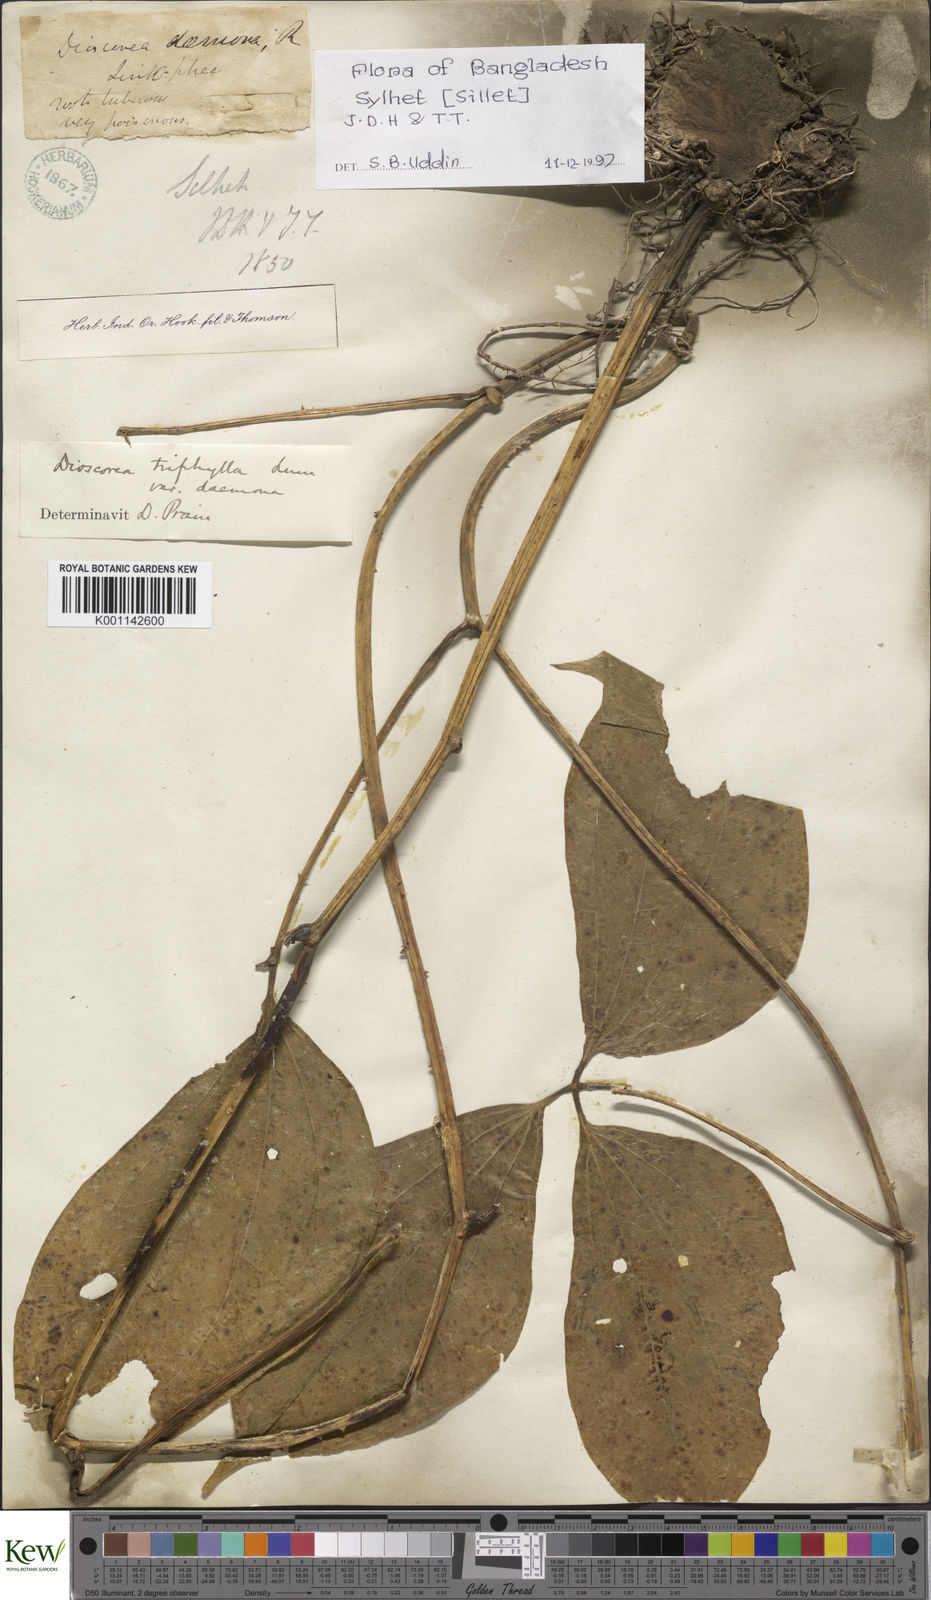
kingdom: Plantae
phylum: Tracheophyta
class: Liliopsida
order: Dioscoreales
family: Dioscoreaceae
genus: Dioscorea
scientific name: Dioscorea pentaphylla
